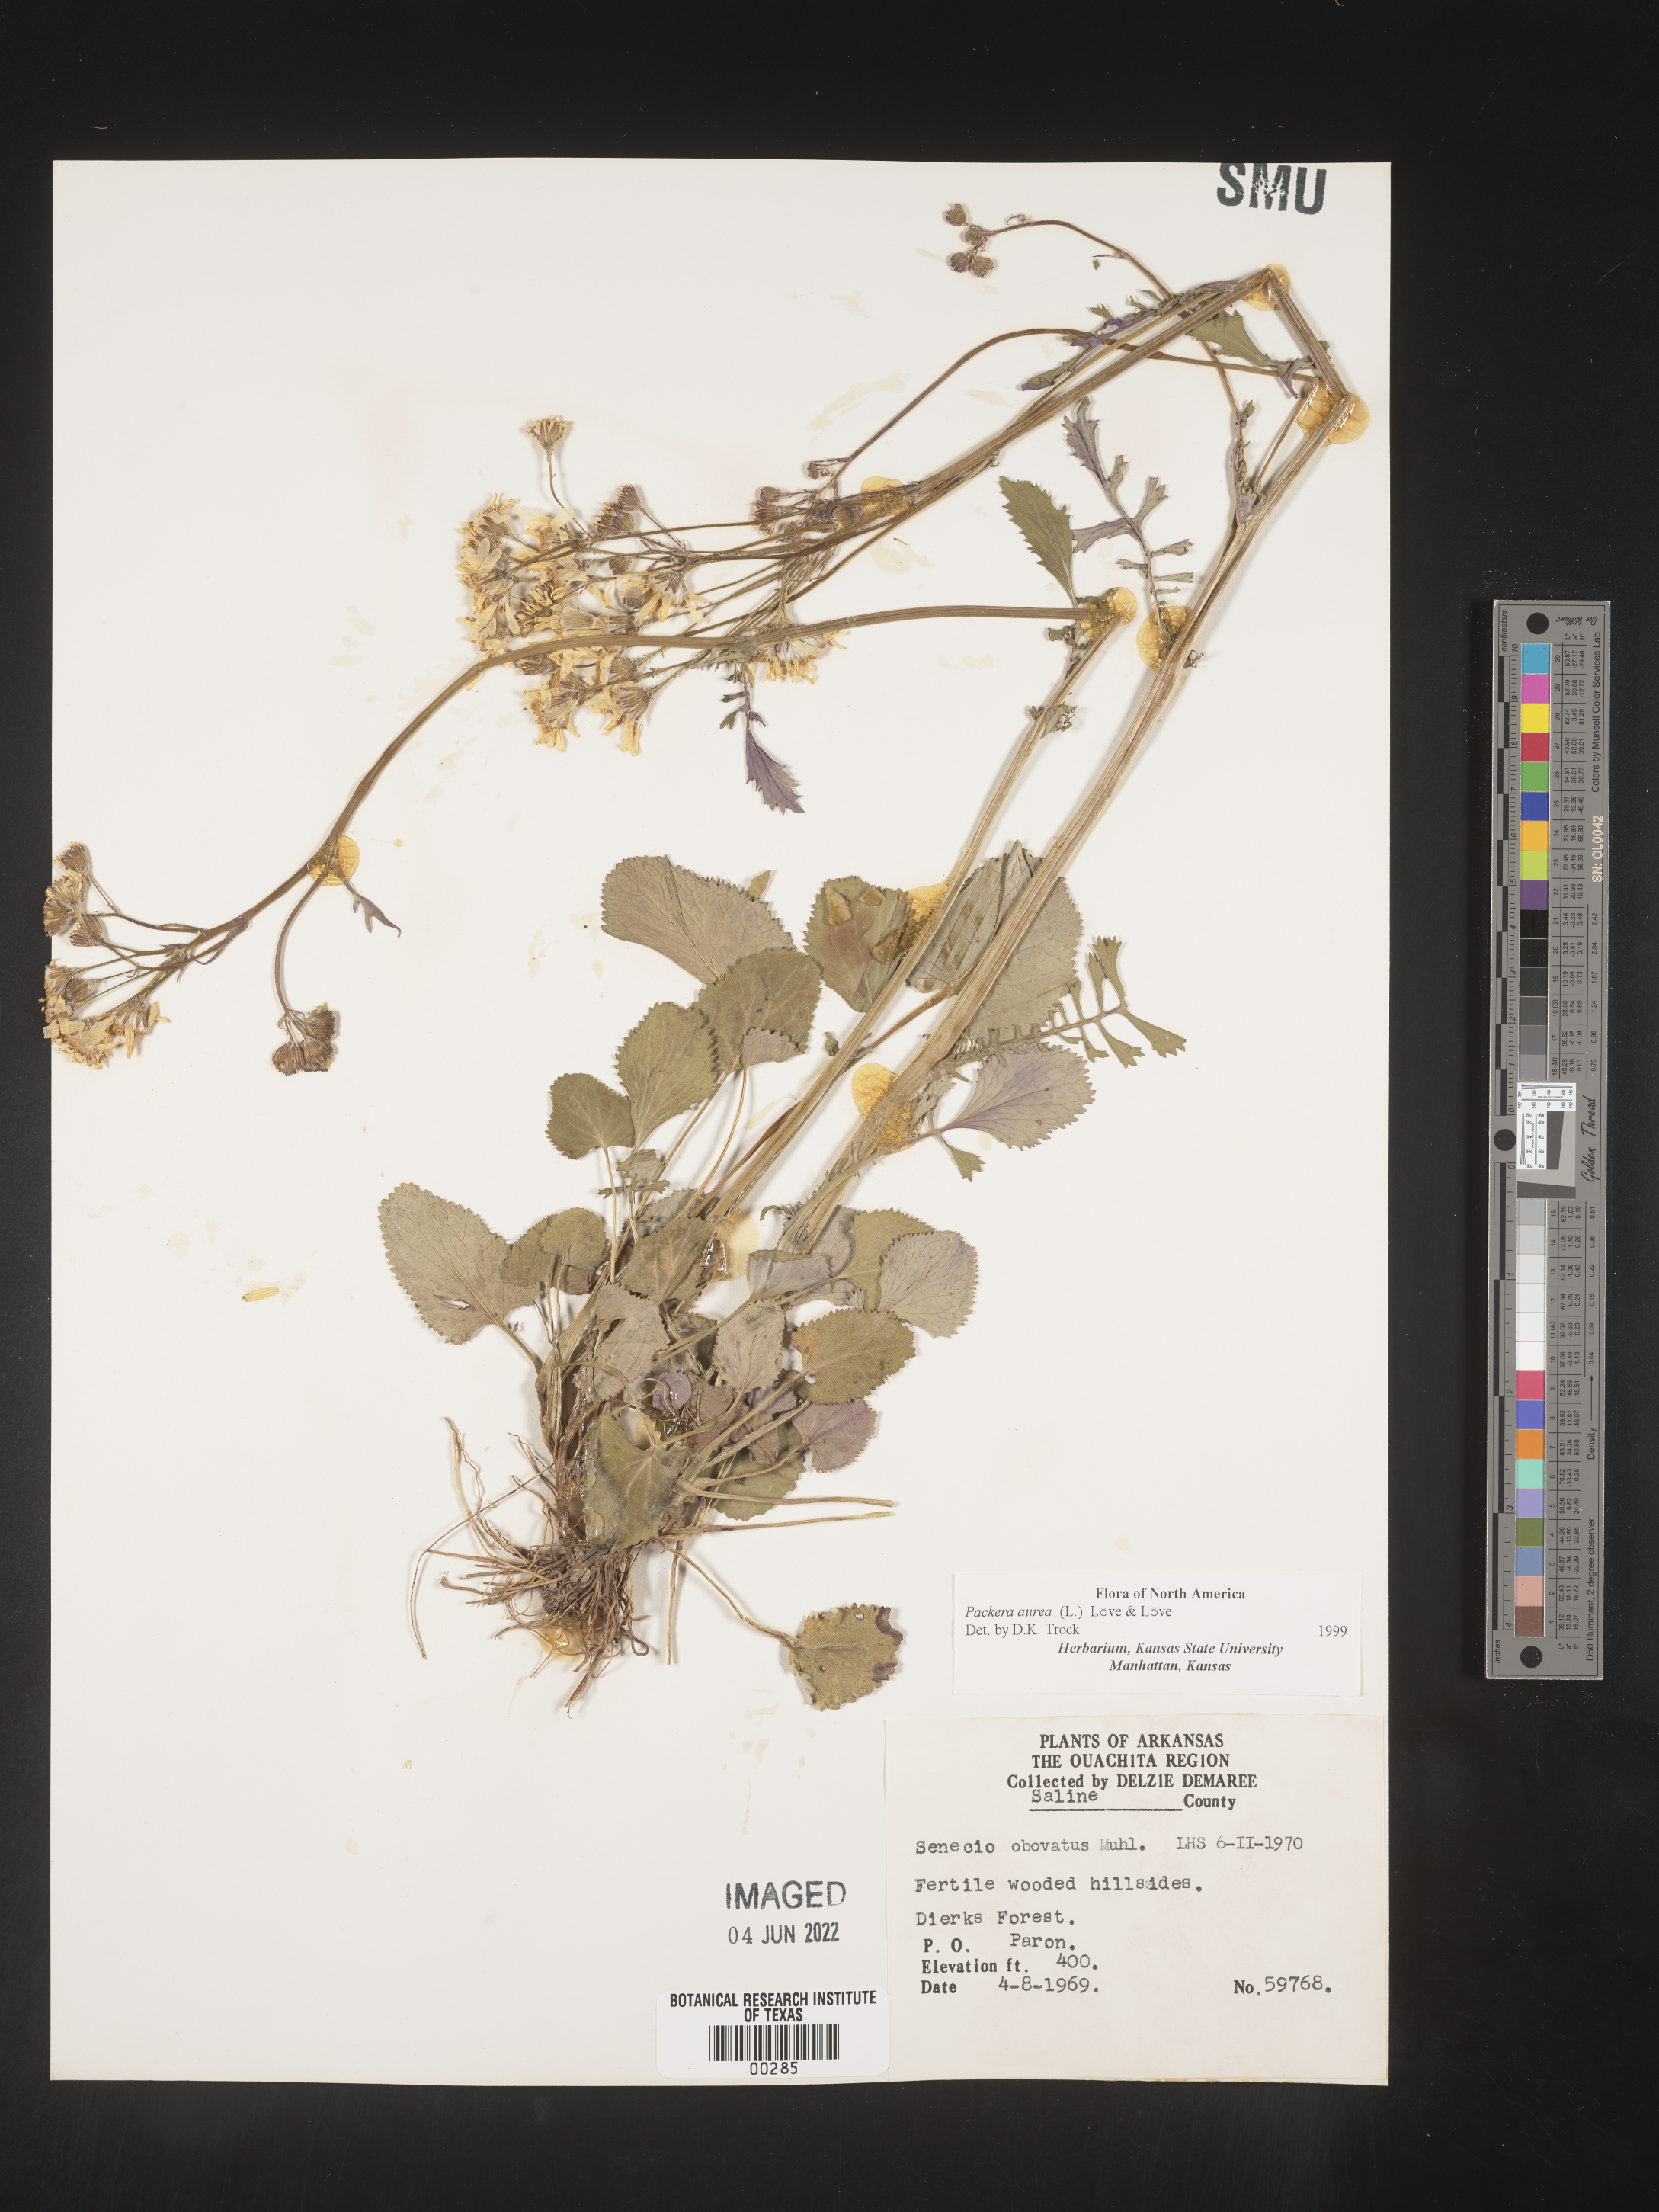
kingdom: Plantae
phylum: Tracheophyta
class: Magnoliopsida
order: Asterales
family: Asteraceae
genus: Packera
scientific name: Packera aurea
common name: Golden groundsel
